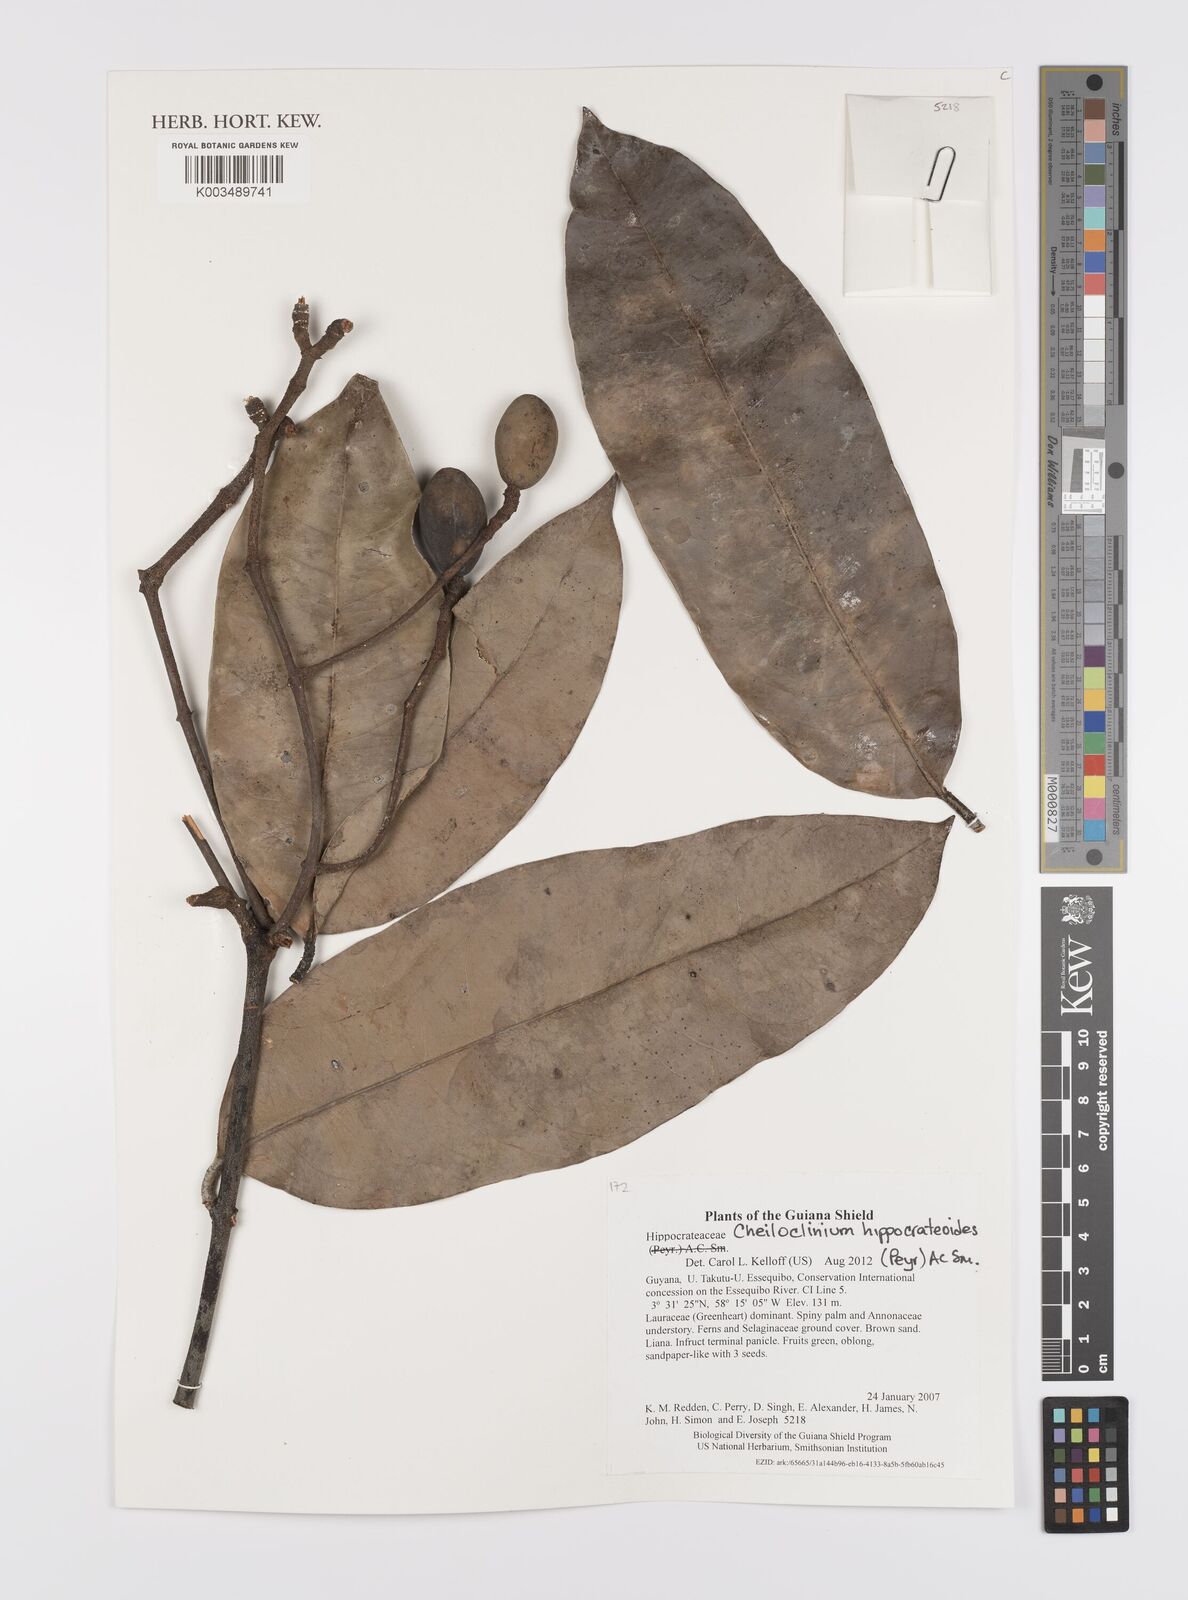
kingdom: Plantae
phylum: Tracheophyta
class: Magnoliopsida
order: Celastrales
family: Celastraceae
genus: Cheiloclinium
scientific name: Cheiloclinium hippocrateoides
